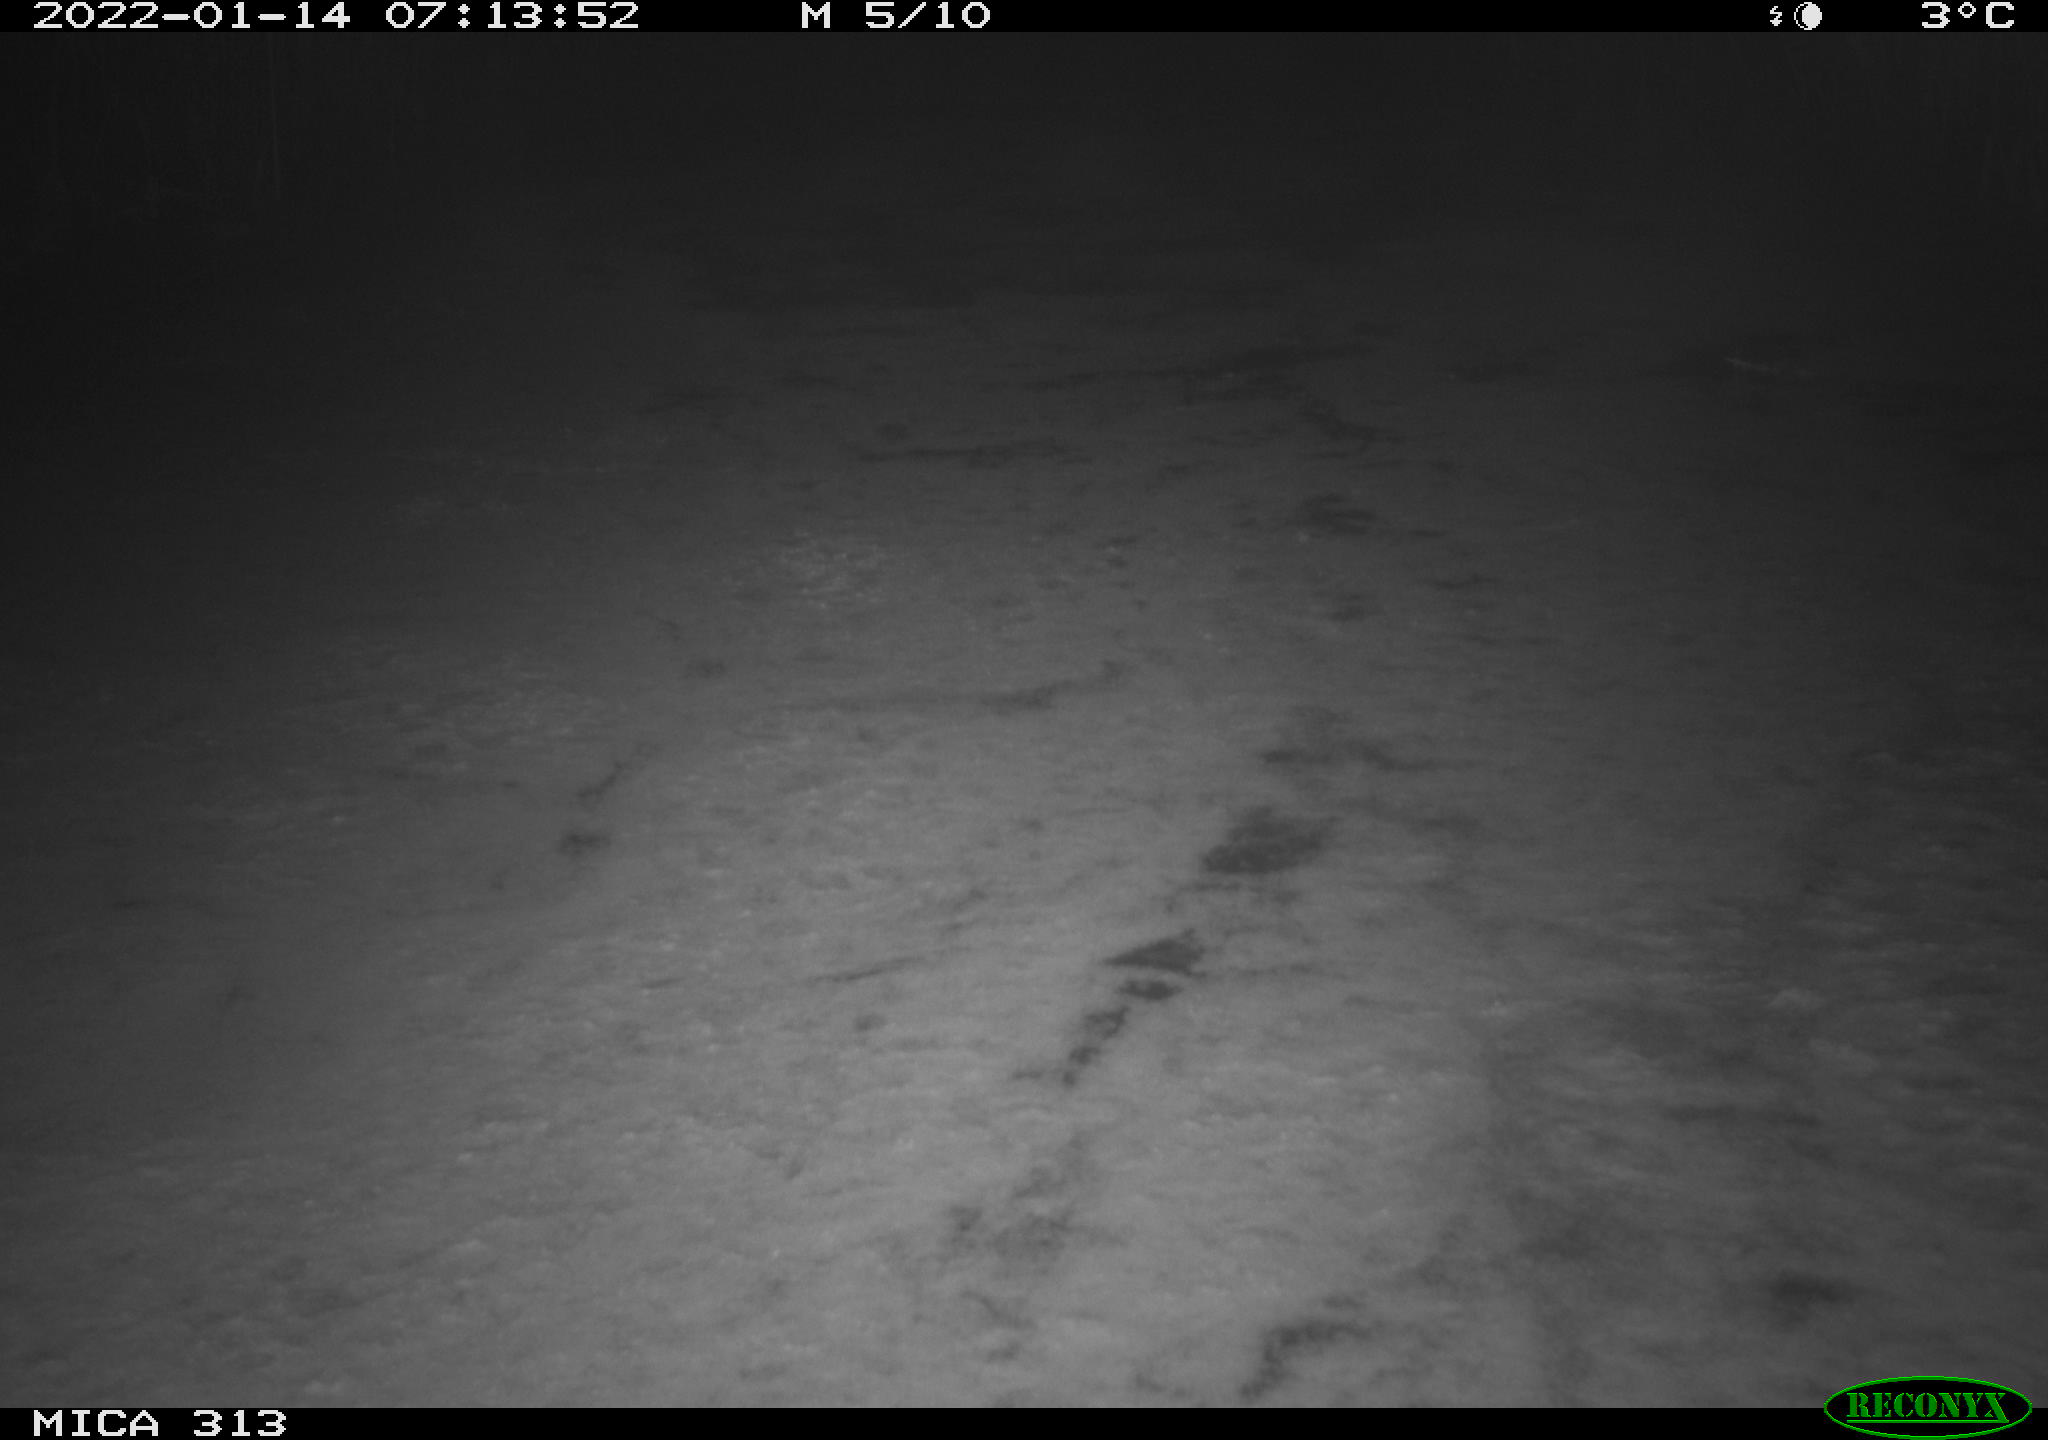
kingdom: Animalia
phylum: Chordata
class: Aves
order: Gruiformes
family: Rallidae
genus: Fulica
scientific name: Fulica atra
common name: Eurasian coot
